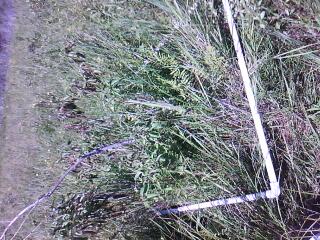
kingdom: Plantae
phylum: Tracheophyta
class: Liliopsida
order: Poales
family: Cyperaceae
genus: Carex
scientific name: Carex tetanica
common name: Rigid sedge
